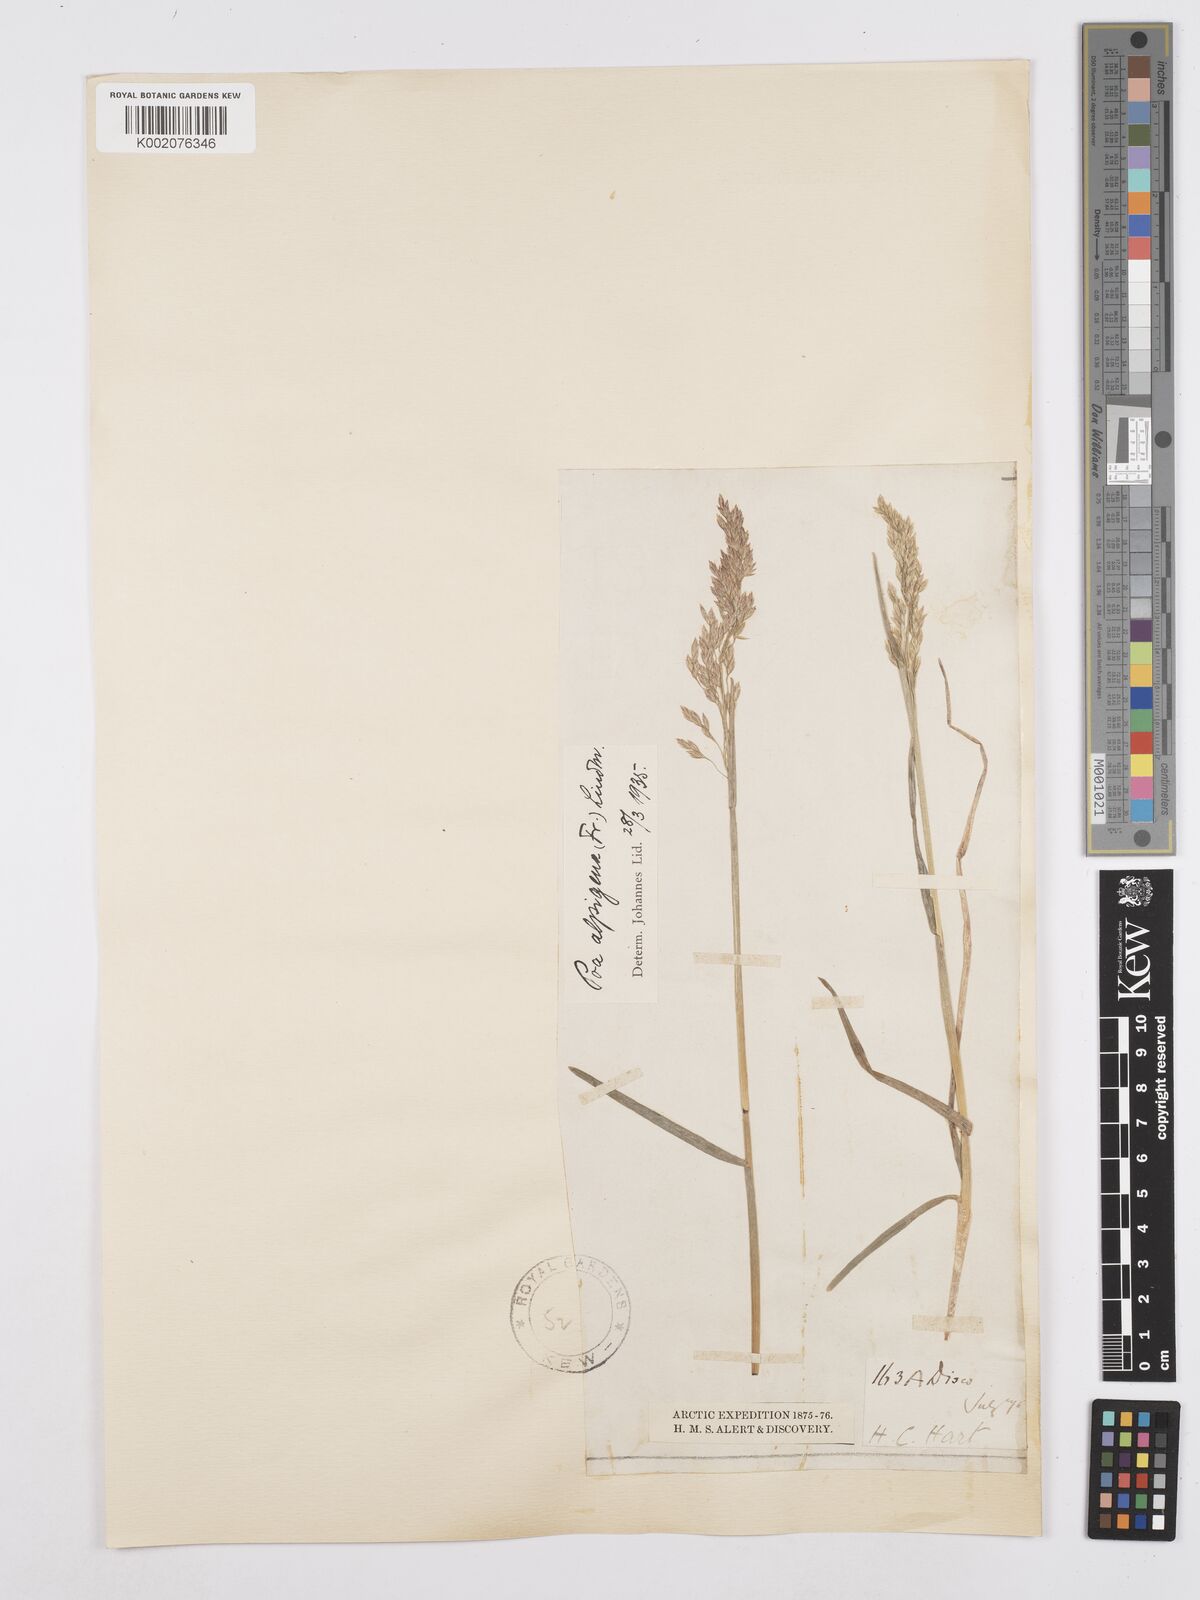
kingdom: Plantae
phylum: Tracheophyta
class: Liliopsida
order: Poales
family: Poaceae
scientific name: Poaceae
